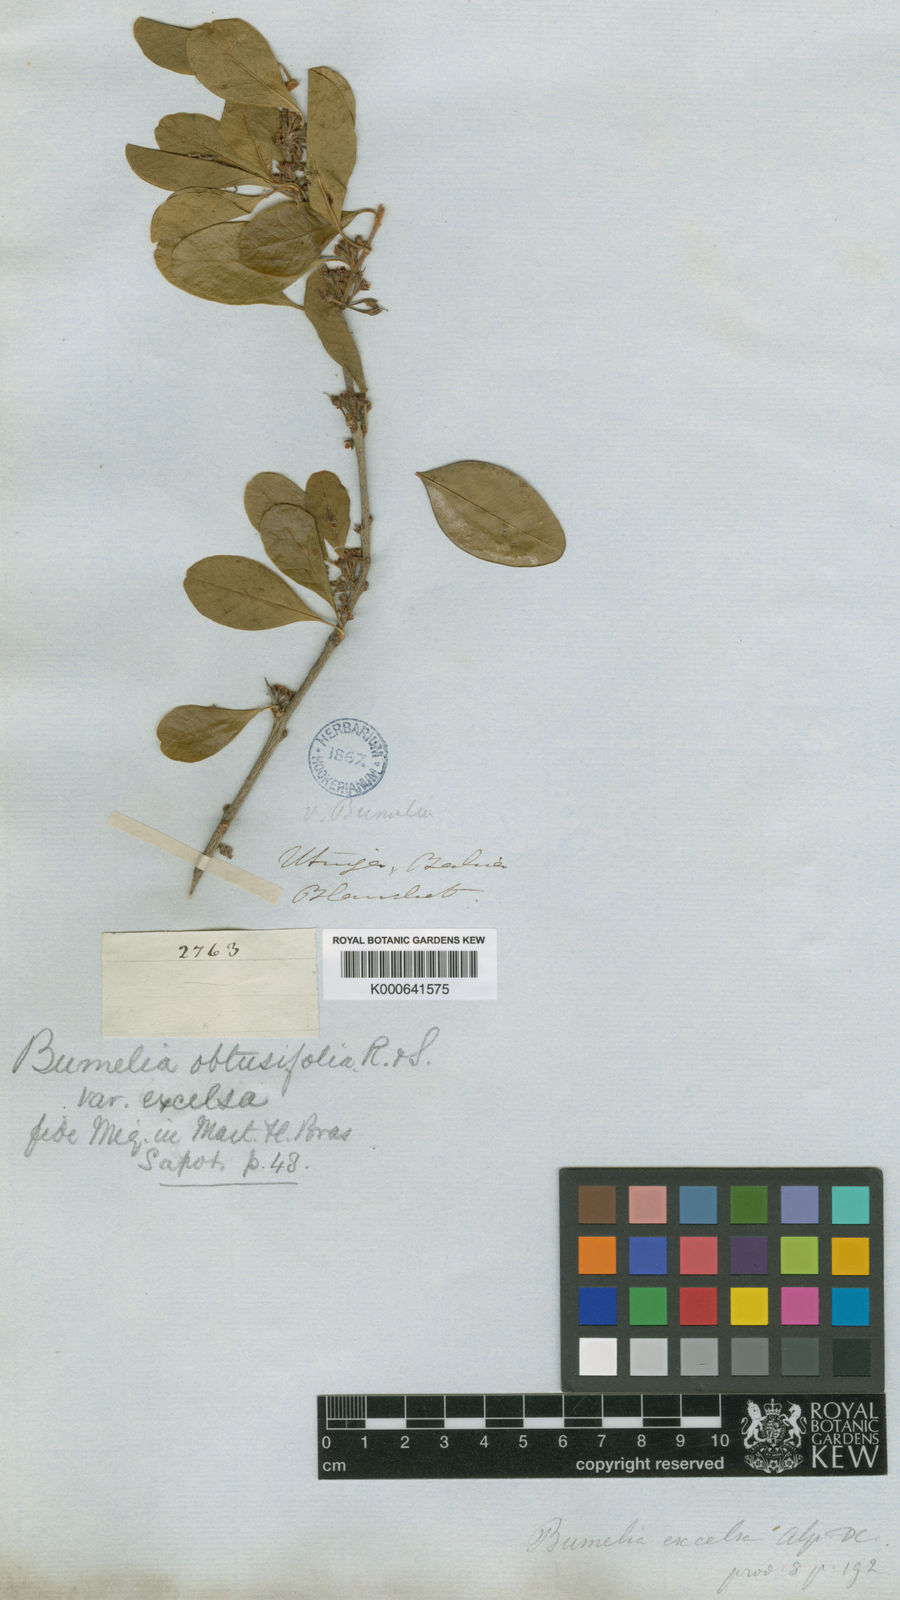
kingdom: Plantae
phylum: Tracheophyta
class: Magnoliopsida
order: Ericales
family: Sapotaceae
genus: Sideroxylon
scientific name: Sideroxylon obtusifolium
